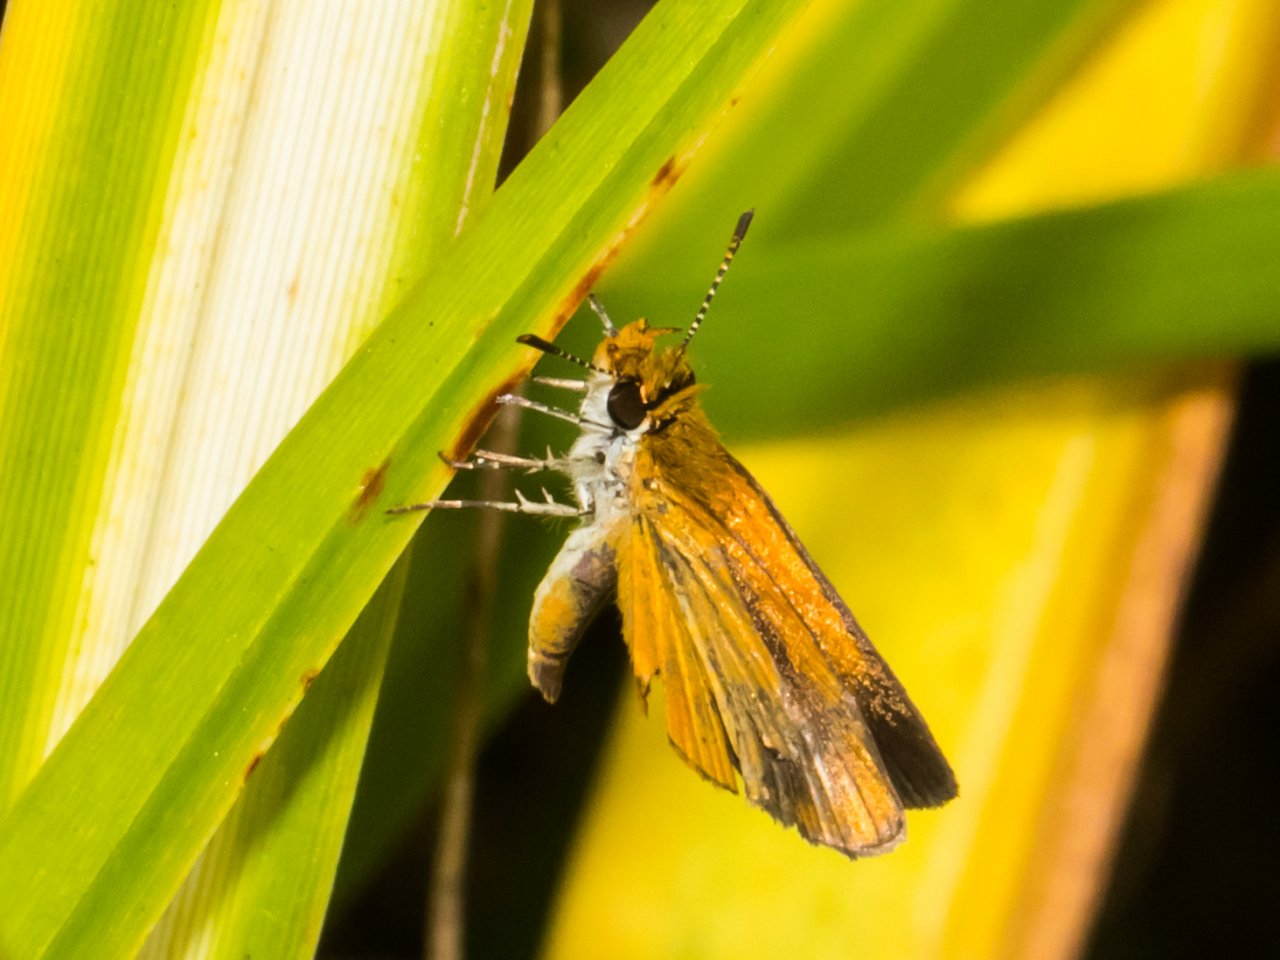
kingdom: Animalia
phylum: Arthropoda
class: Insecta
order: Lepidoptera
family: Hesperiidae
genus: Ancyloxypha
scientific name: Ancyloxypha numitor
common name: Least Skipper
